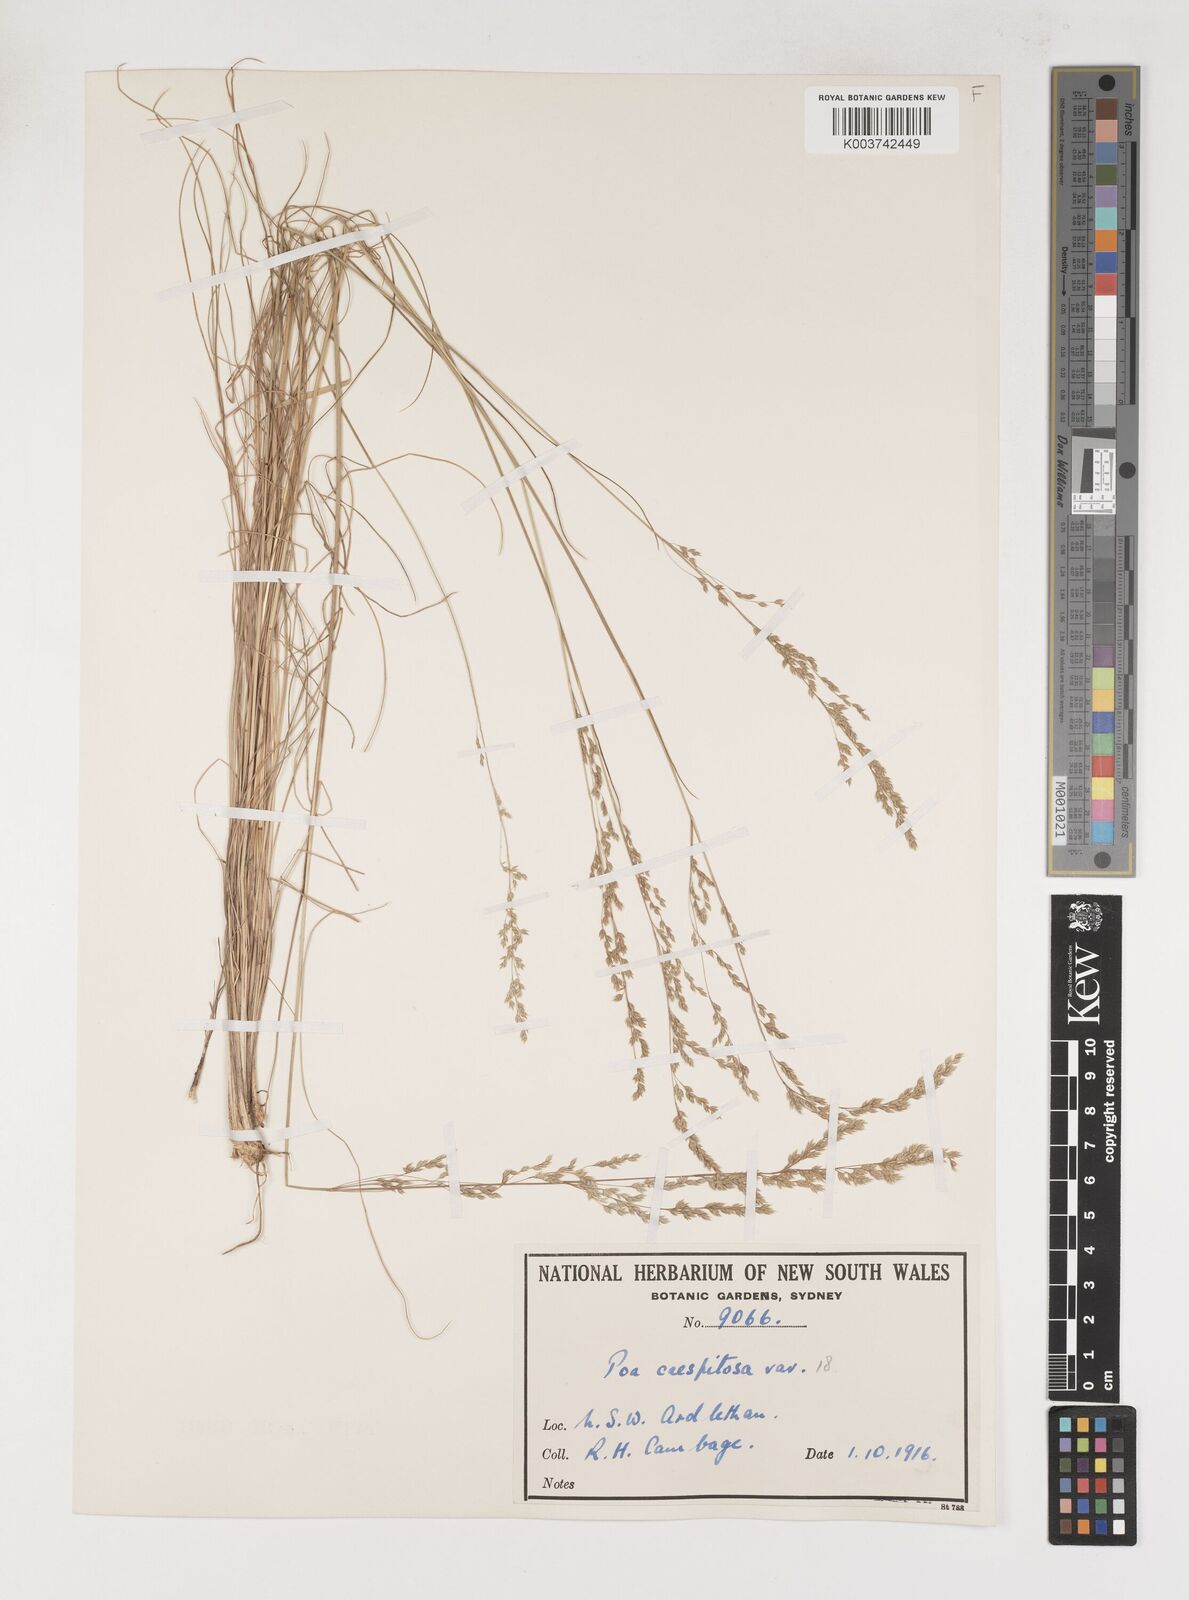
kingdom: Plantae
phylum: Tracheophyta
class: Liliopsida
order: Poales
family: Poaceae
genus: Poa
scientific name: Poa
